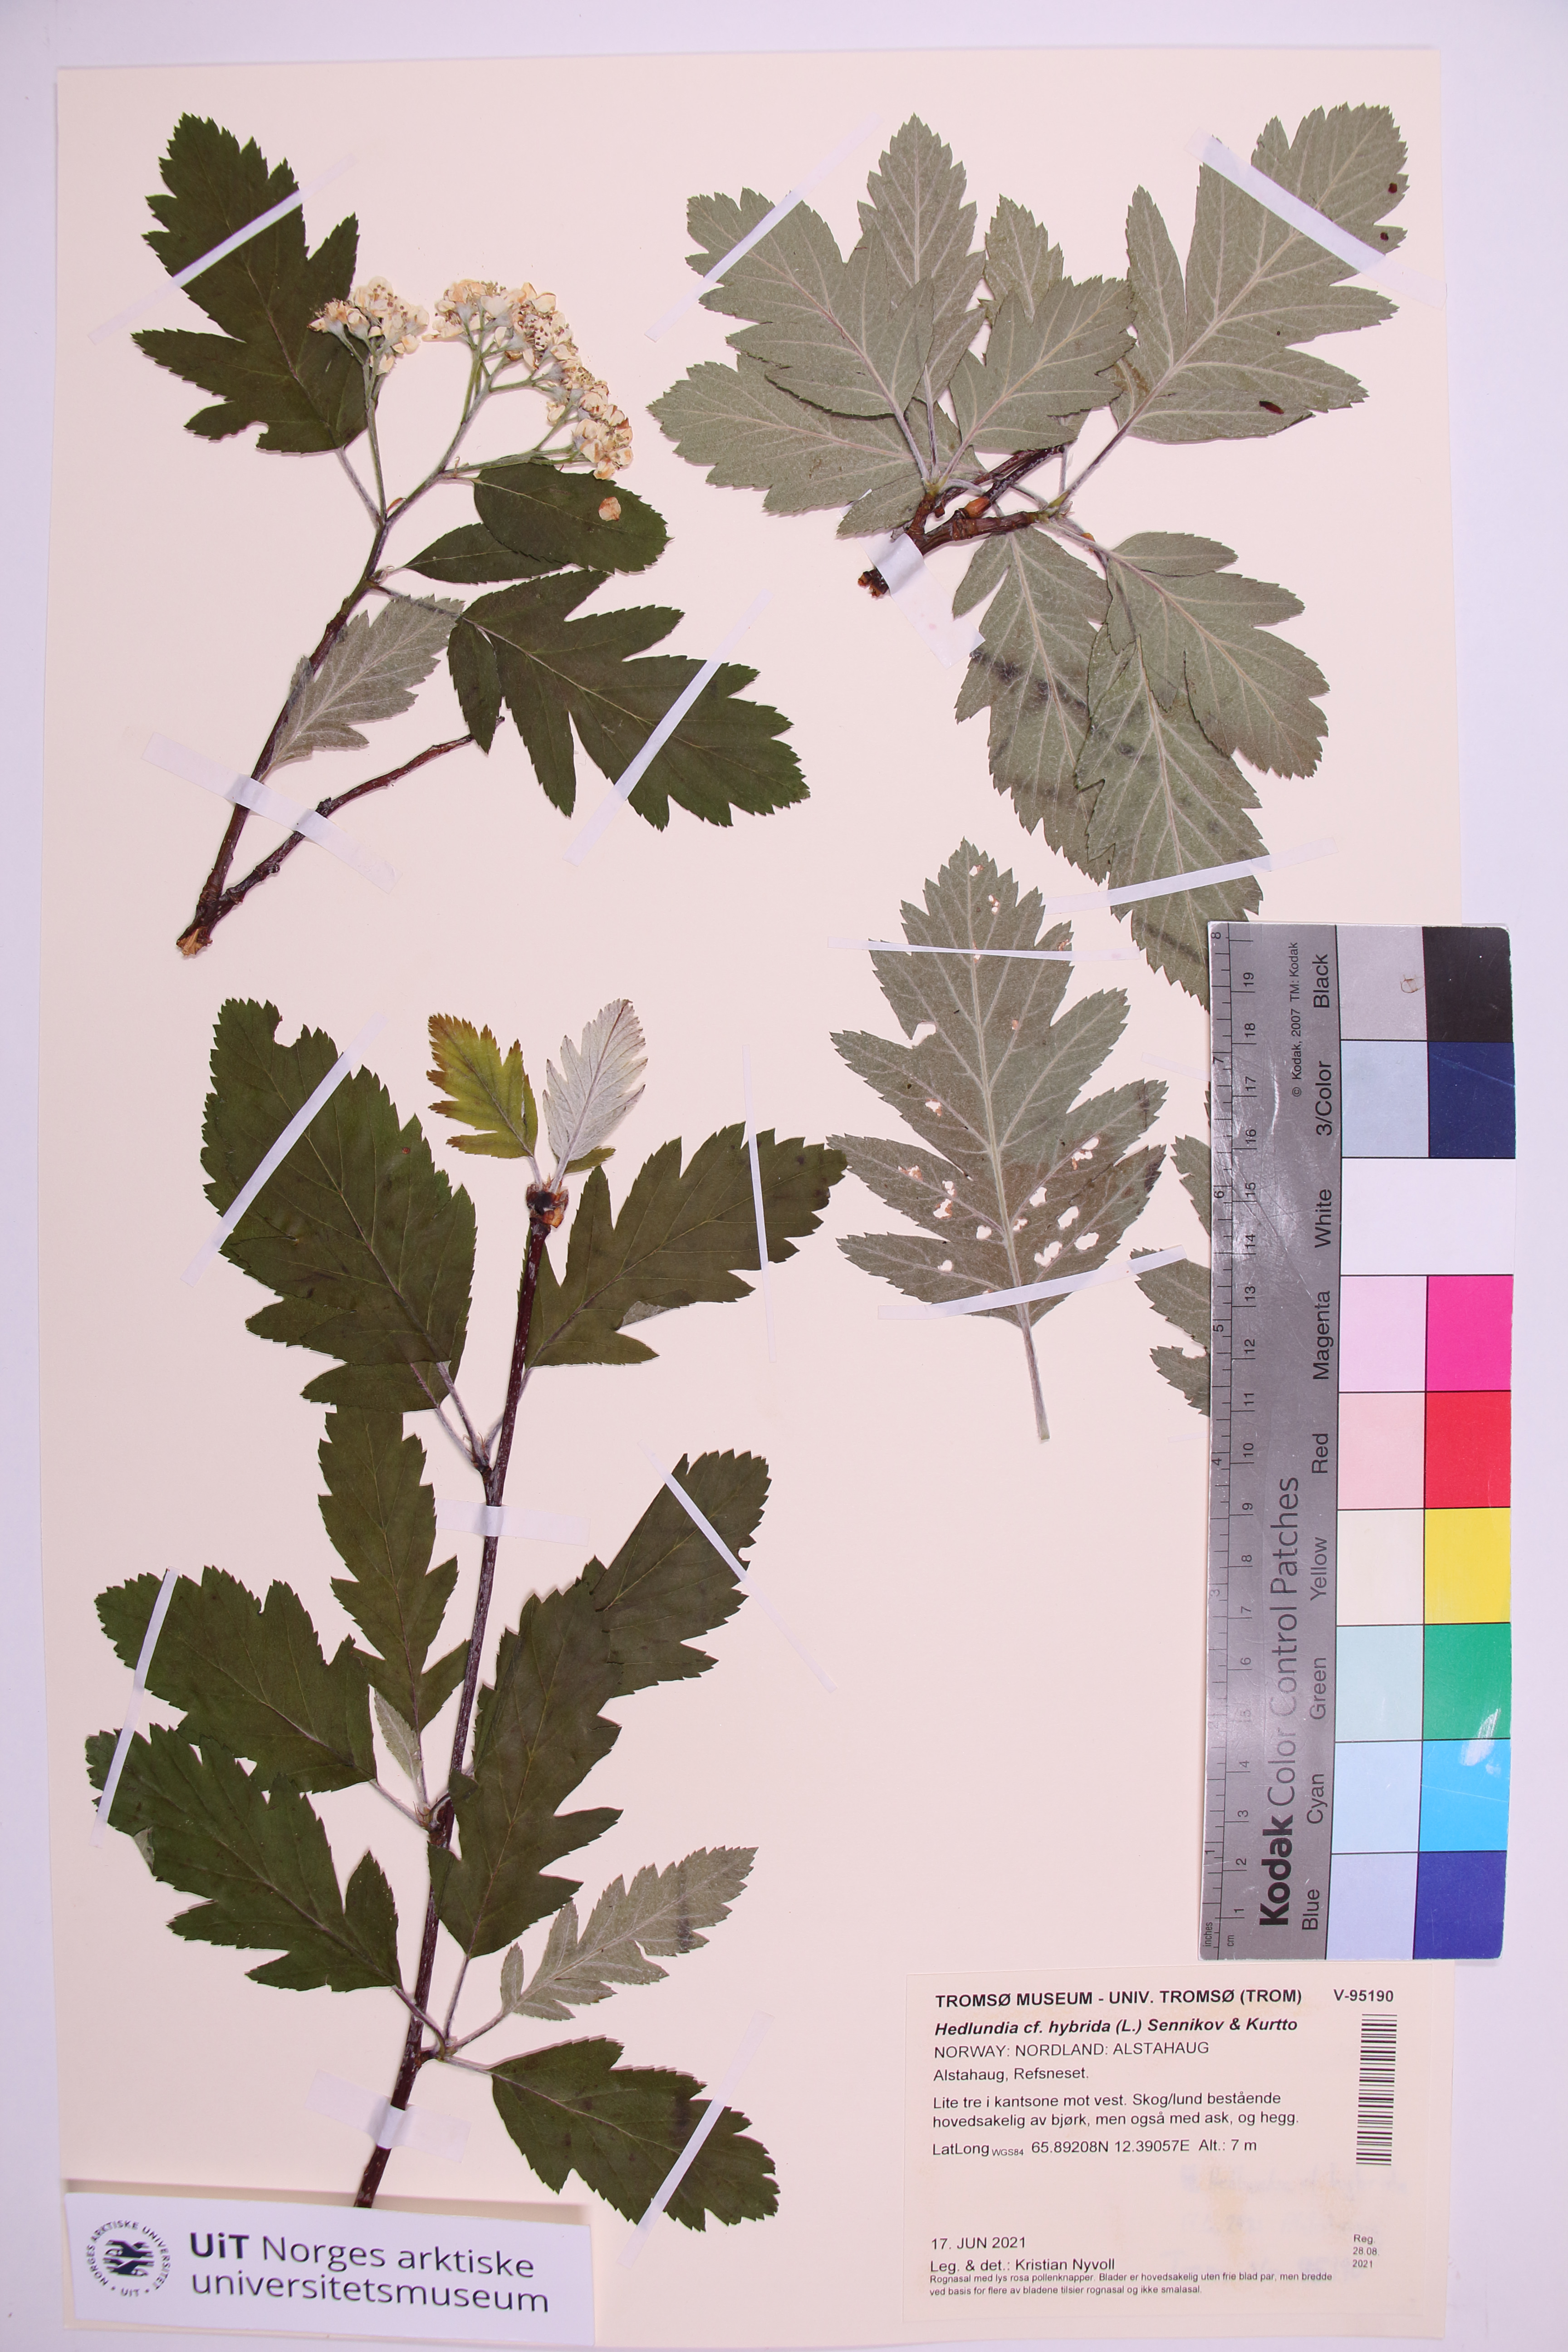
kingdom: Plantae
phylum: Tracheophyta
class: Magnoliopsida
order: Rosales
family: Rosaceae
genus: Hedlundia
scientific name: Hedlundia hybrida
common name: Swedish service-tree
